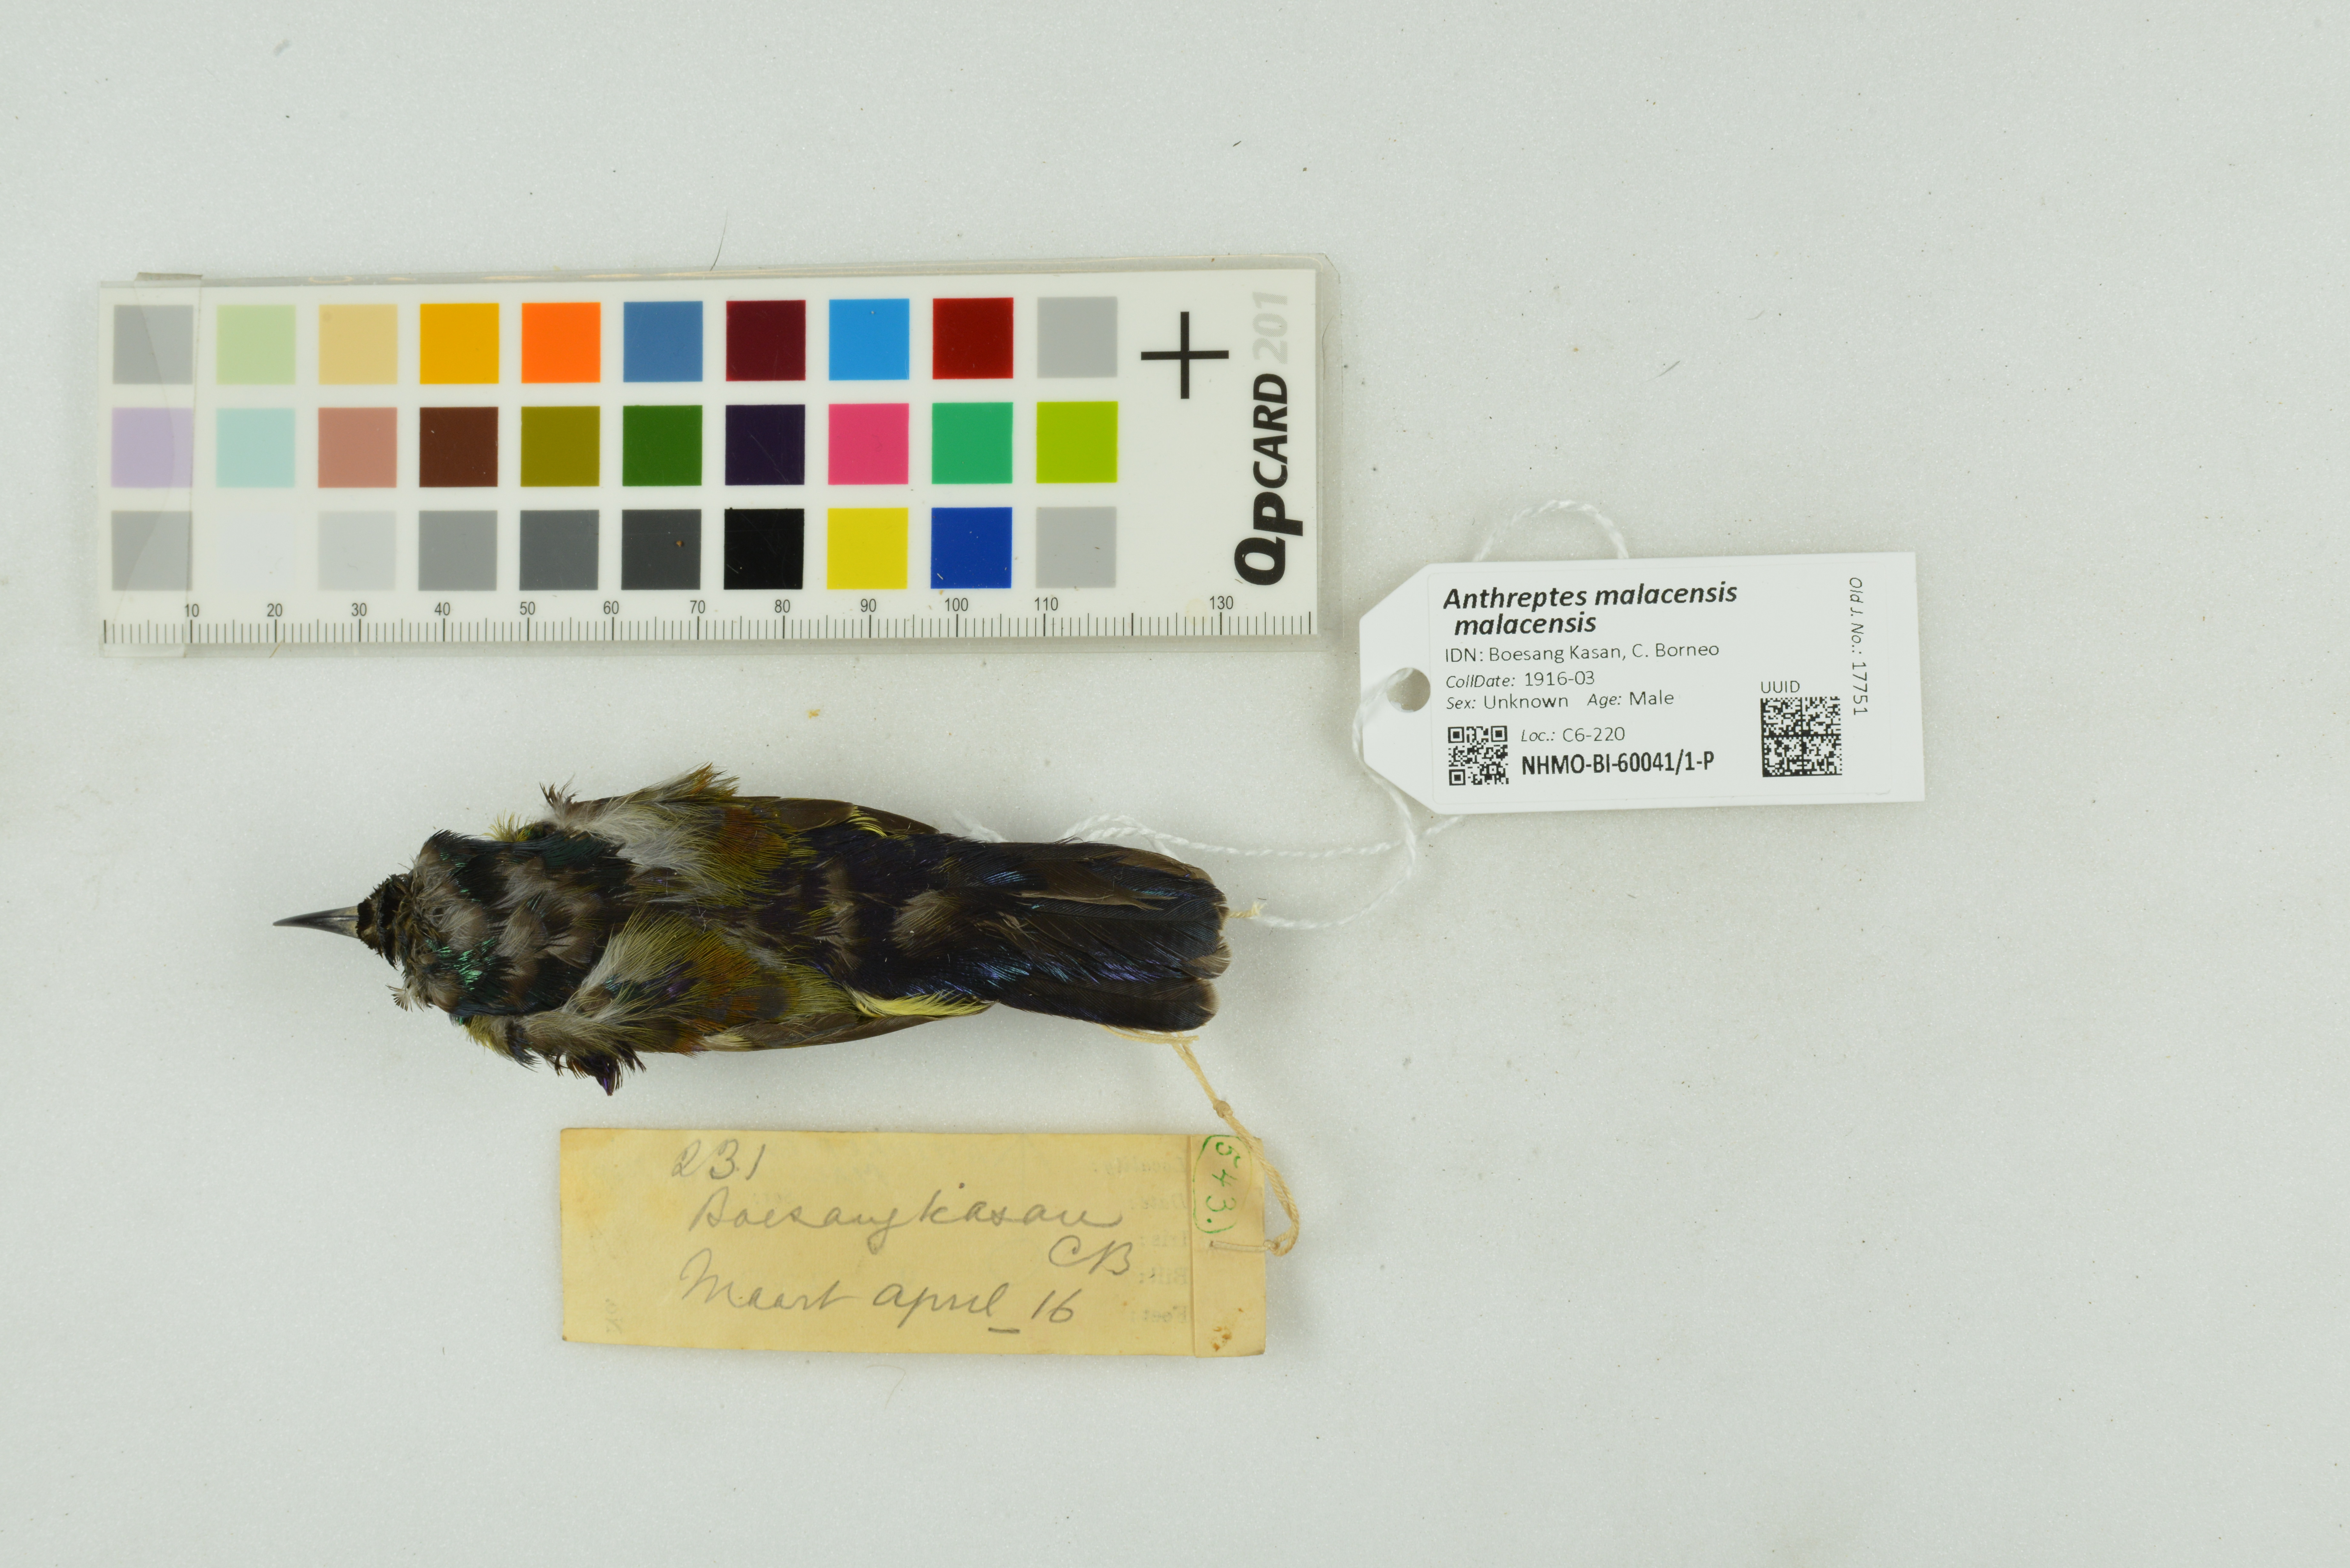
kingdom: Animalia
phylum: Chordata
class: Aves
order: Passeriformes
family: Nectariniidae
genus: Anthreptes
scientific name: Anthreptes malacensis
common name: Brown-throated sunbird
